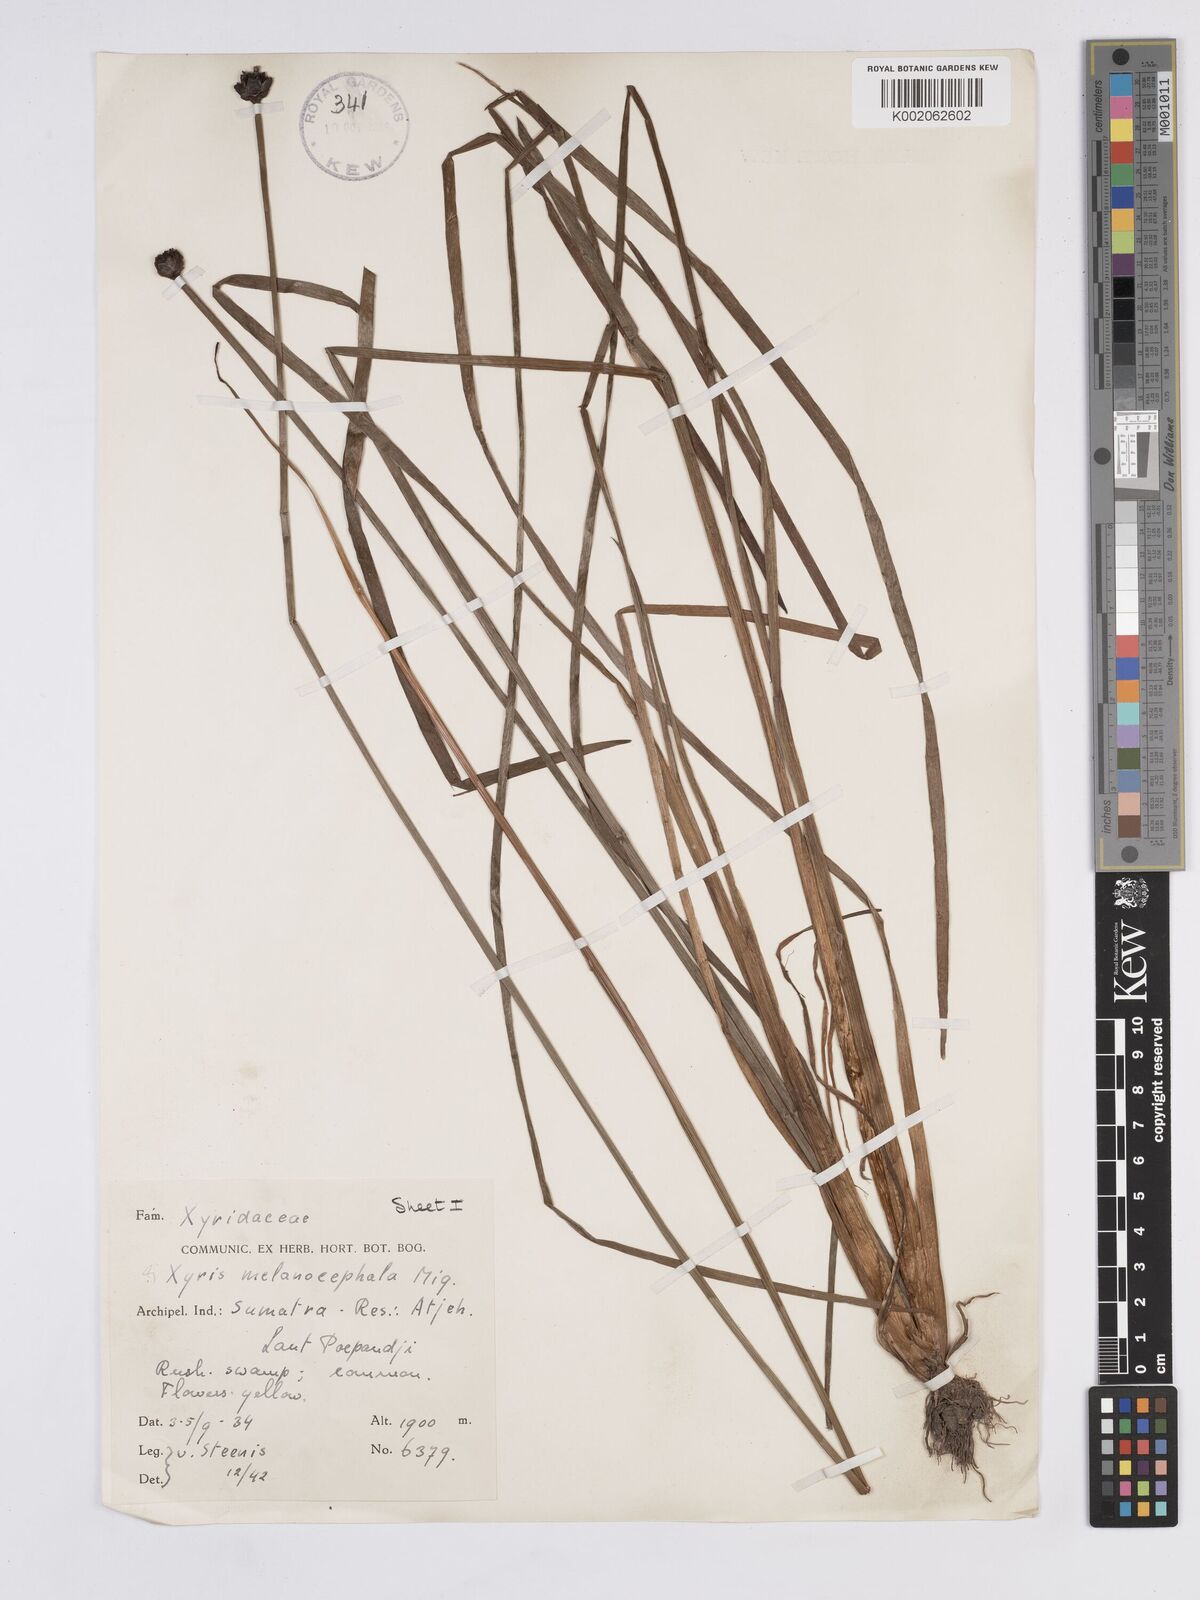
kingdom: Plantae
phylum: Tracheophyta
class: Liliopsida
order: Poales
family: Xyridaceae
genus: Xyris
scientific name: Xyris capensis
